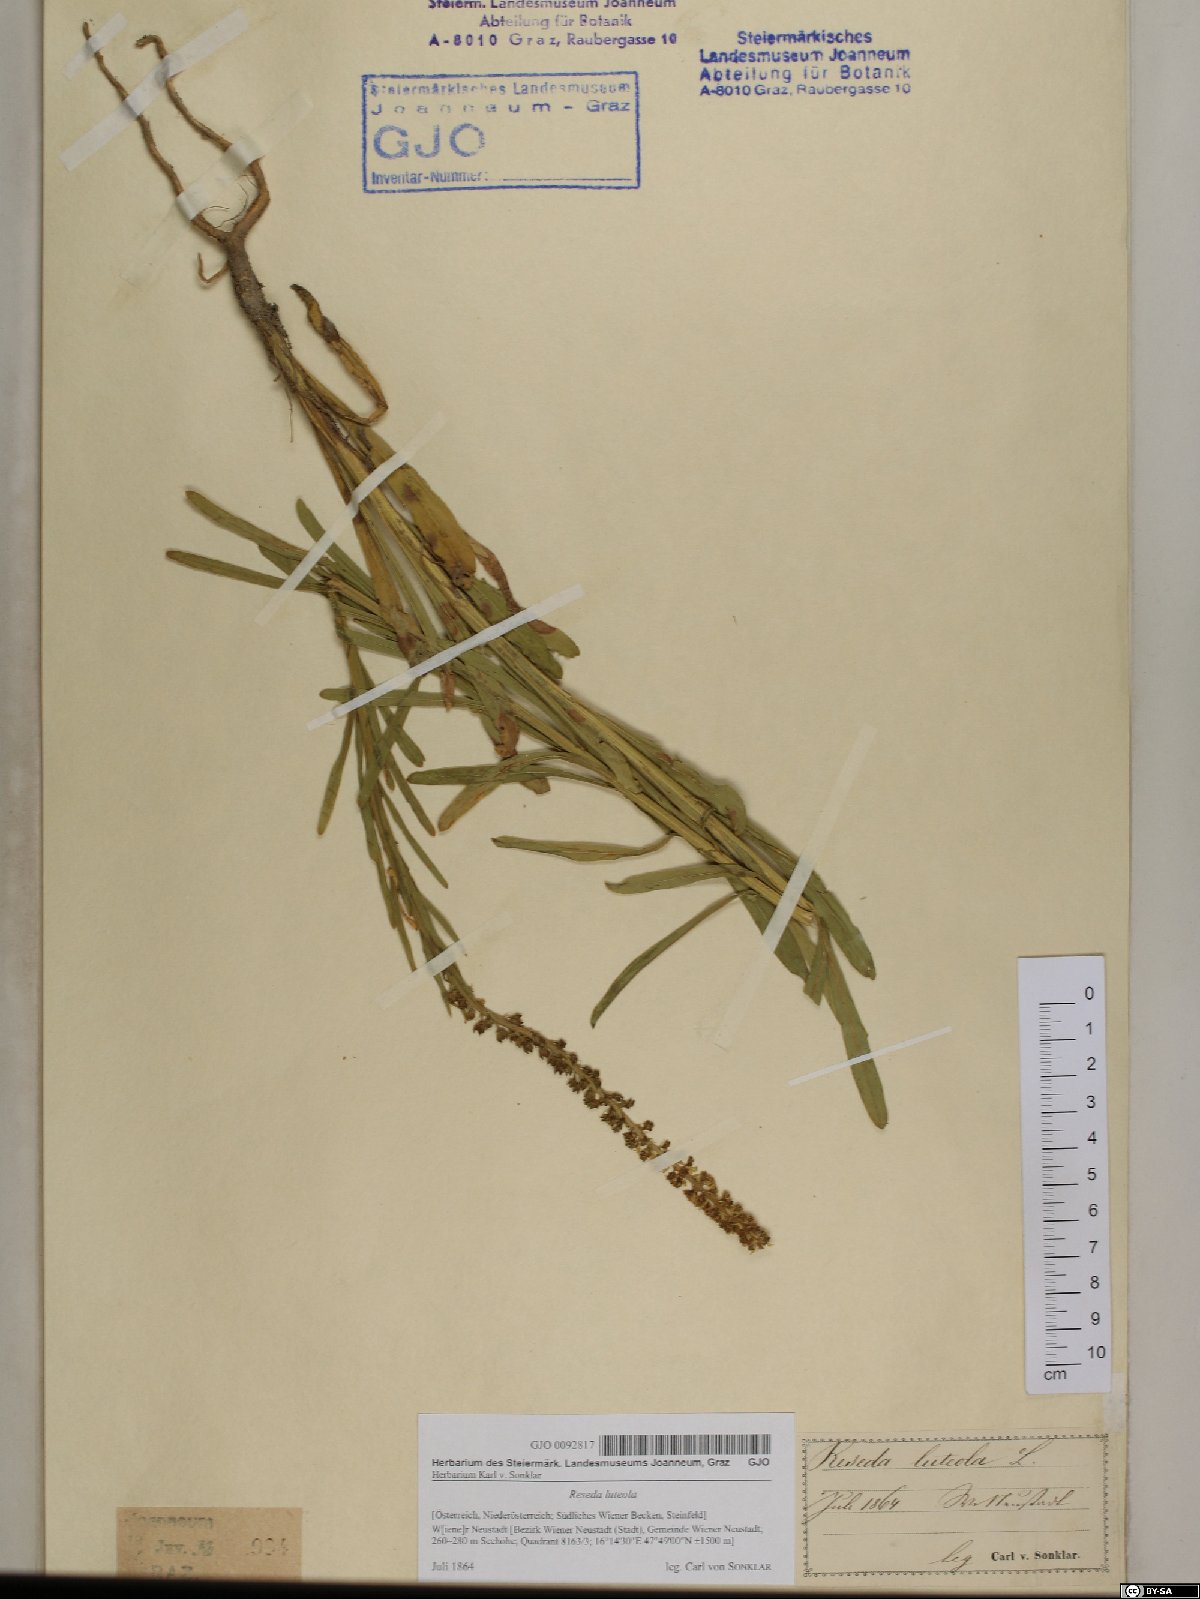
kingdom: Plantae
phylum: Tracheophyta
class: Magnoliopsida
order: Brassicales
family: Resedaceae
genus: Reseda
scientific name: Reseda luteola
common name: Weld
